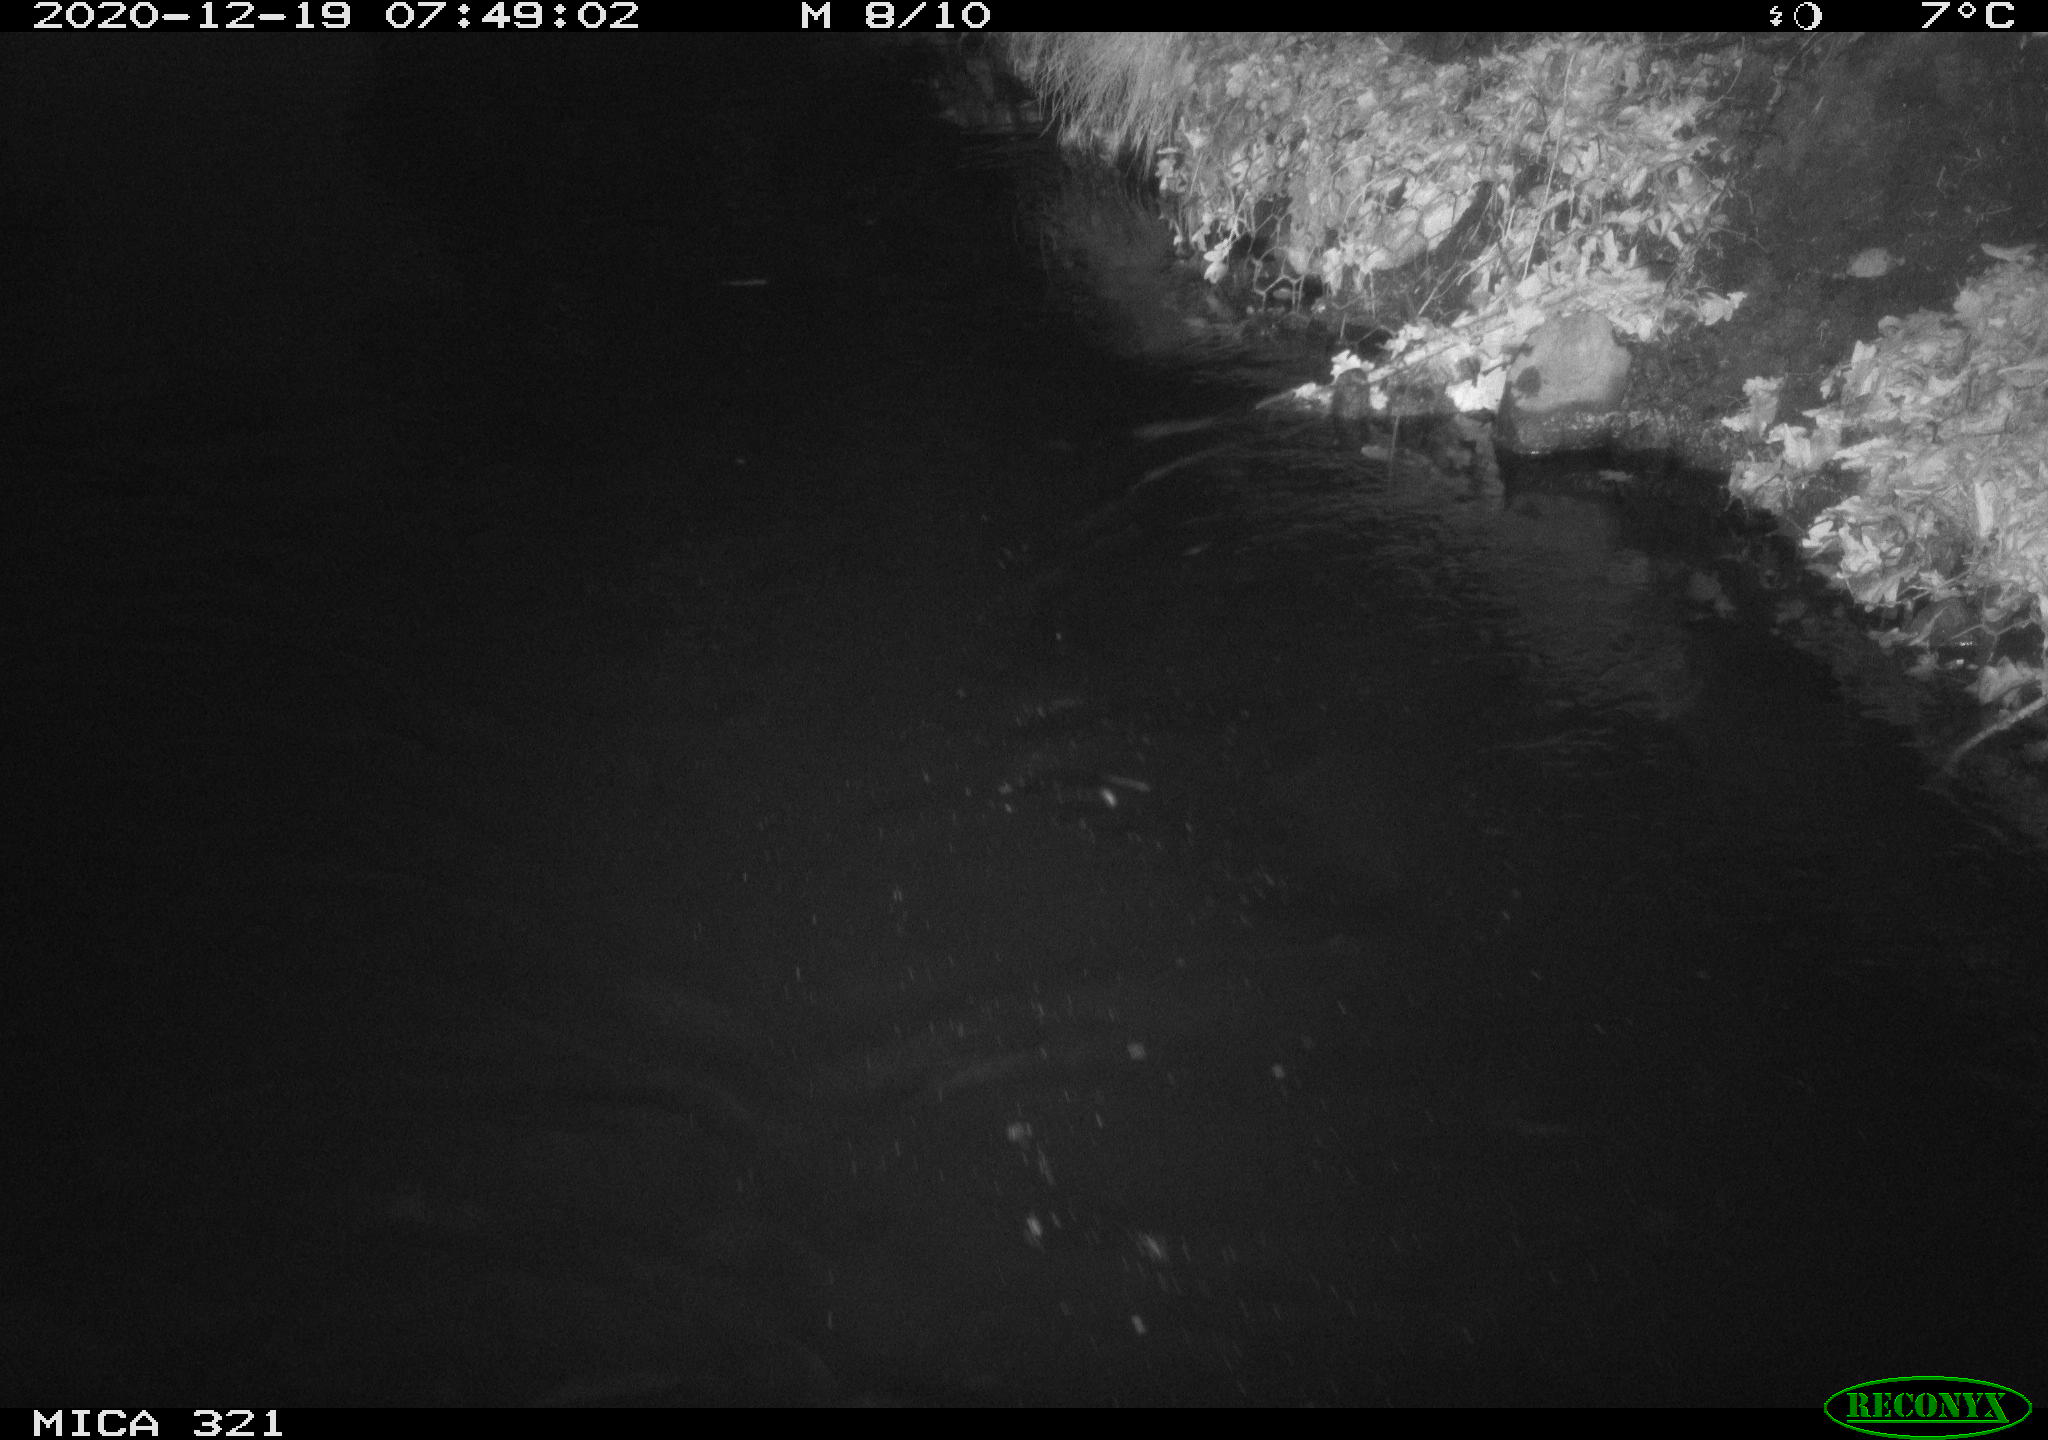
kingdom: Animalia
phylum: Chordata
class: Aves
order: Anseriformes
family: Anatidae
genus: Anas
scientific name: Anas platyrhynchos
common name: Mallard
